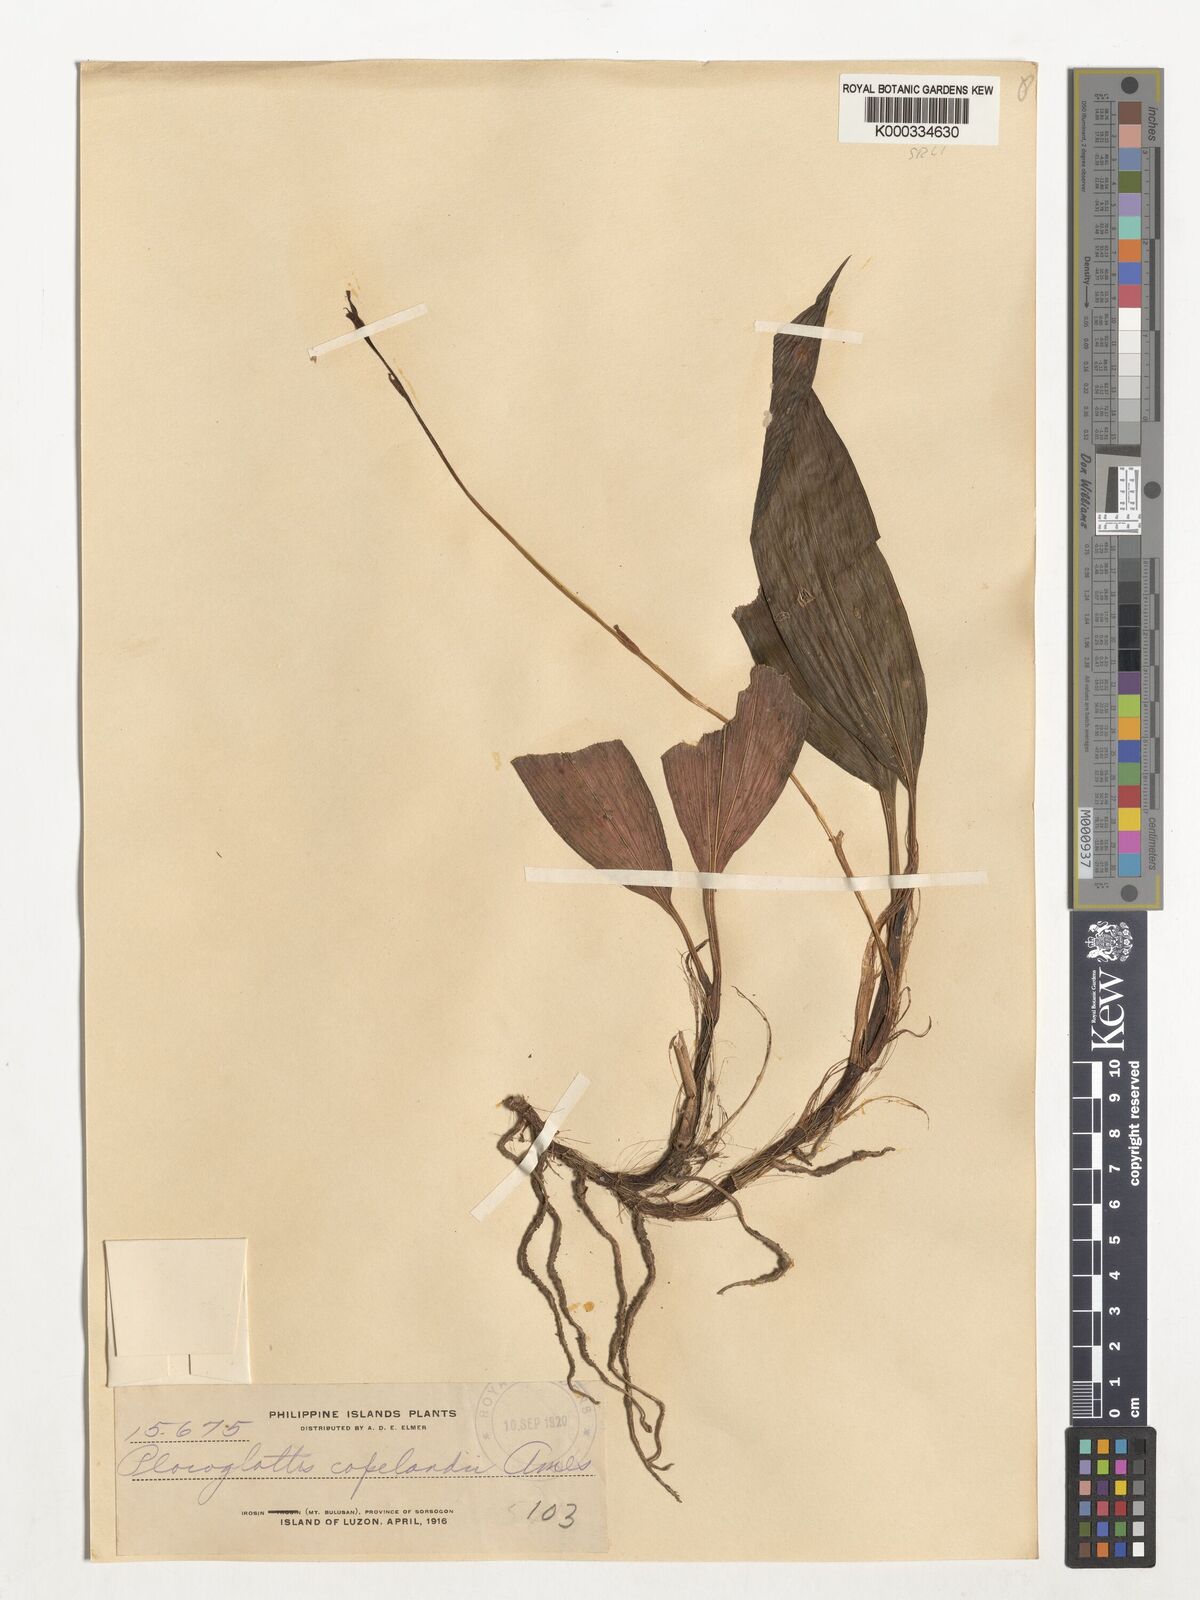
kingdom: Plantae
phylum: Tracheophyta
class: Liliopsida
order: Asparagales
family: Orchidaceae
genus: Plocoglottis
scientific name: Plocoglottis copelandii
